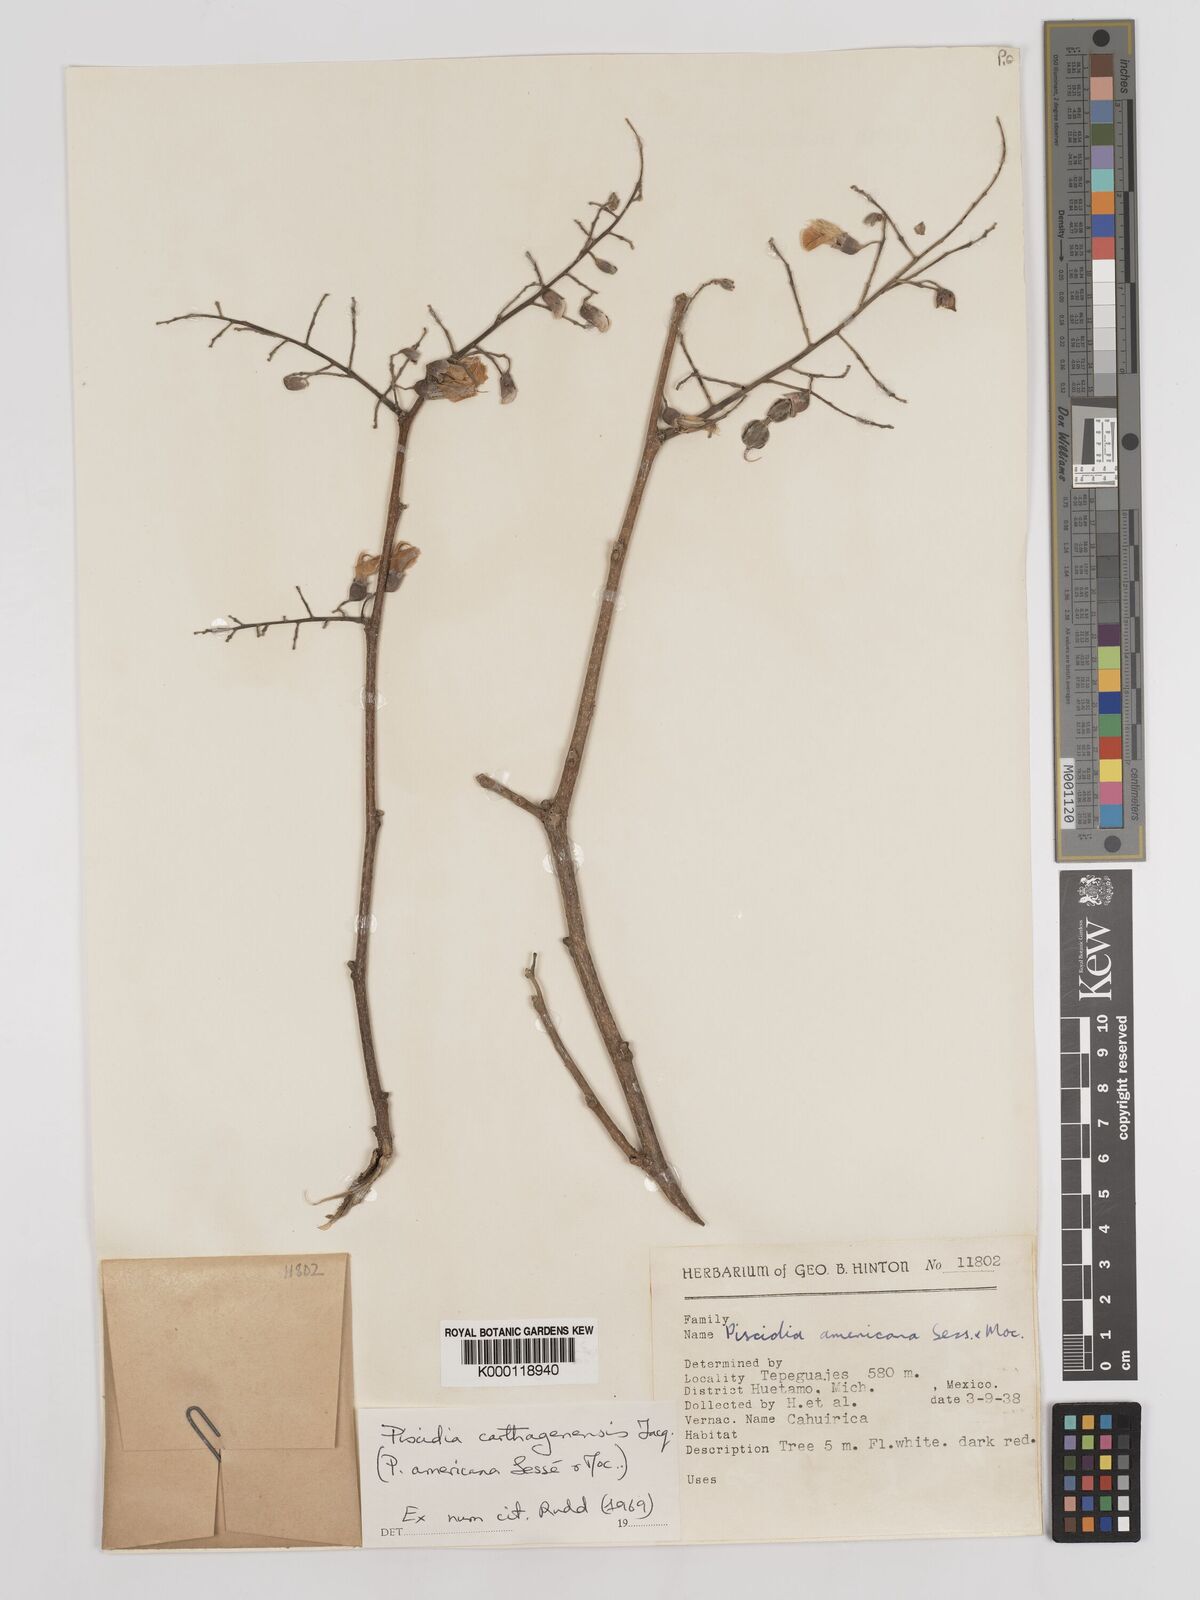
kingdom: Plantae
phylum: Tracheophyta
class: Magnoliopsida
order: Fabales
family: Fabaceae
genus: Piscidia
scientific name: Piscidia carthagenensis
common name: Stinkwood
